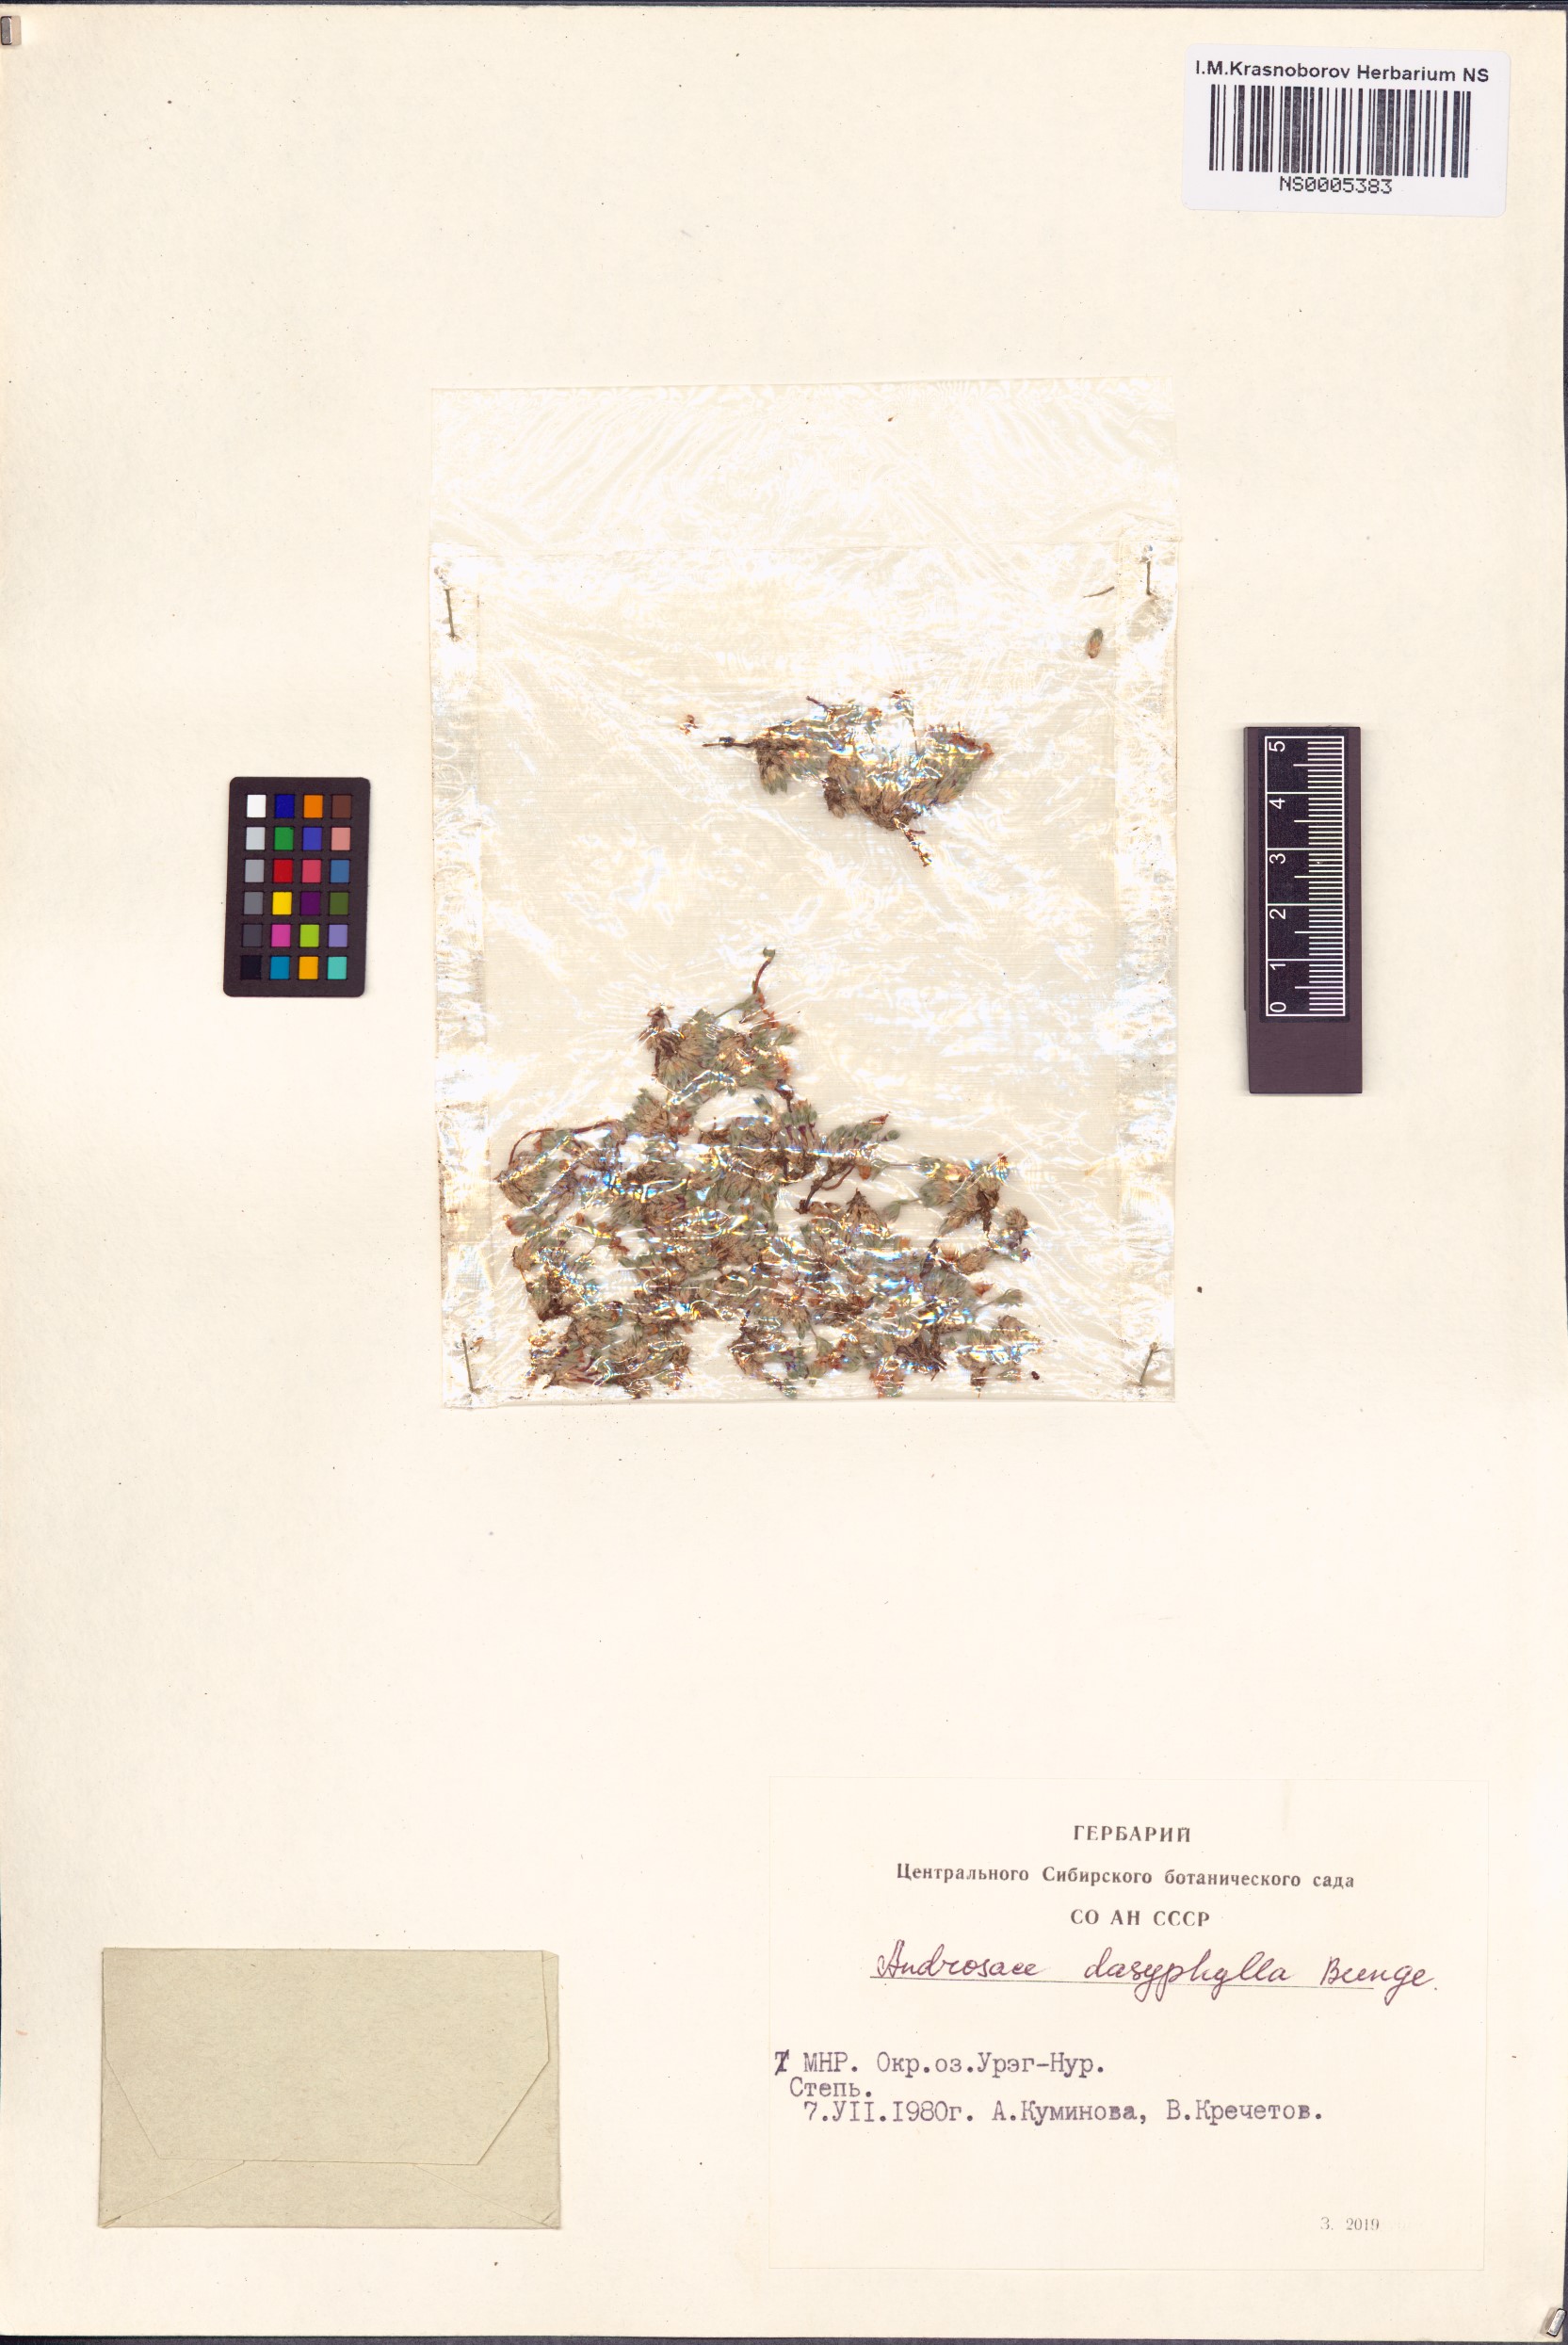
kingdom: Plantae
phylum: Tracheophyta
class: Magnoliopsida
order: Ericales
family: Primulaceae
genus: Androsace
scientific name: Androsace dasyphylla
